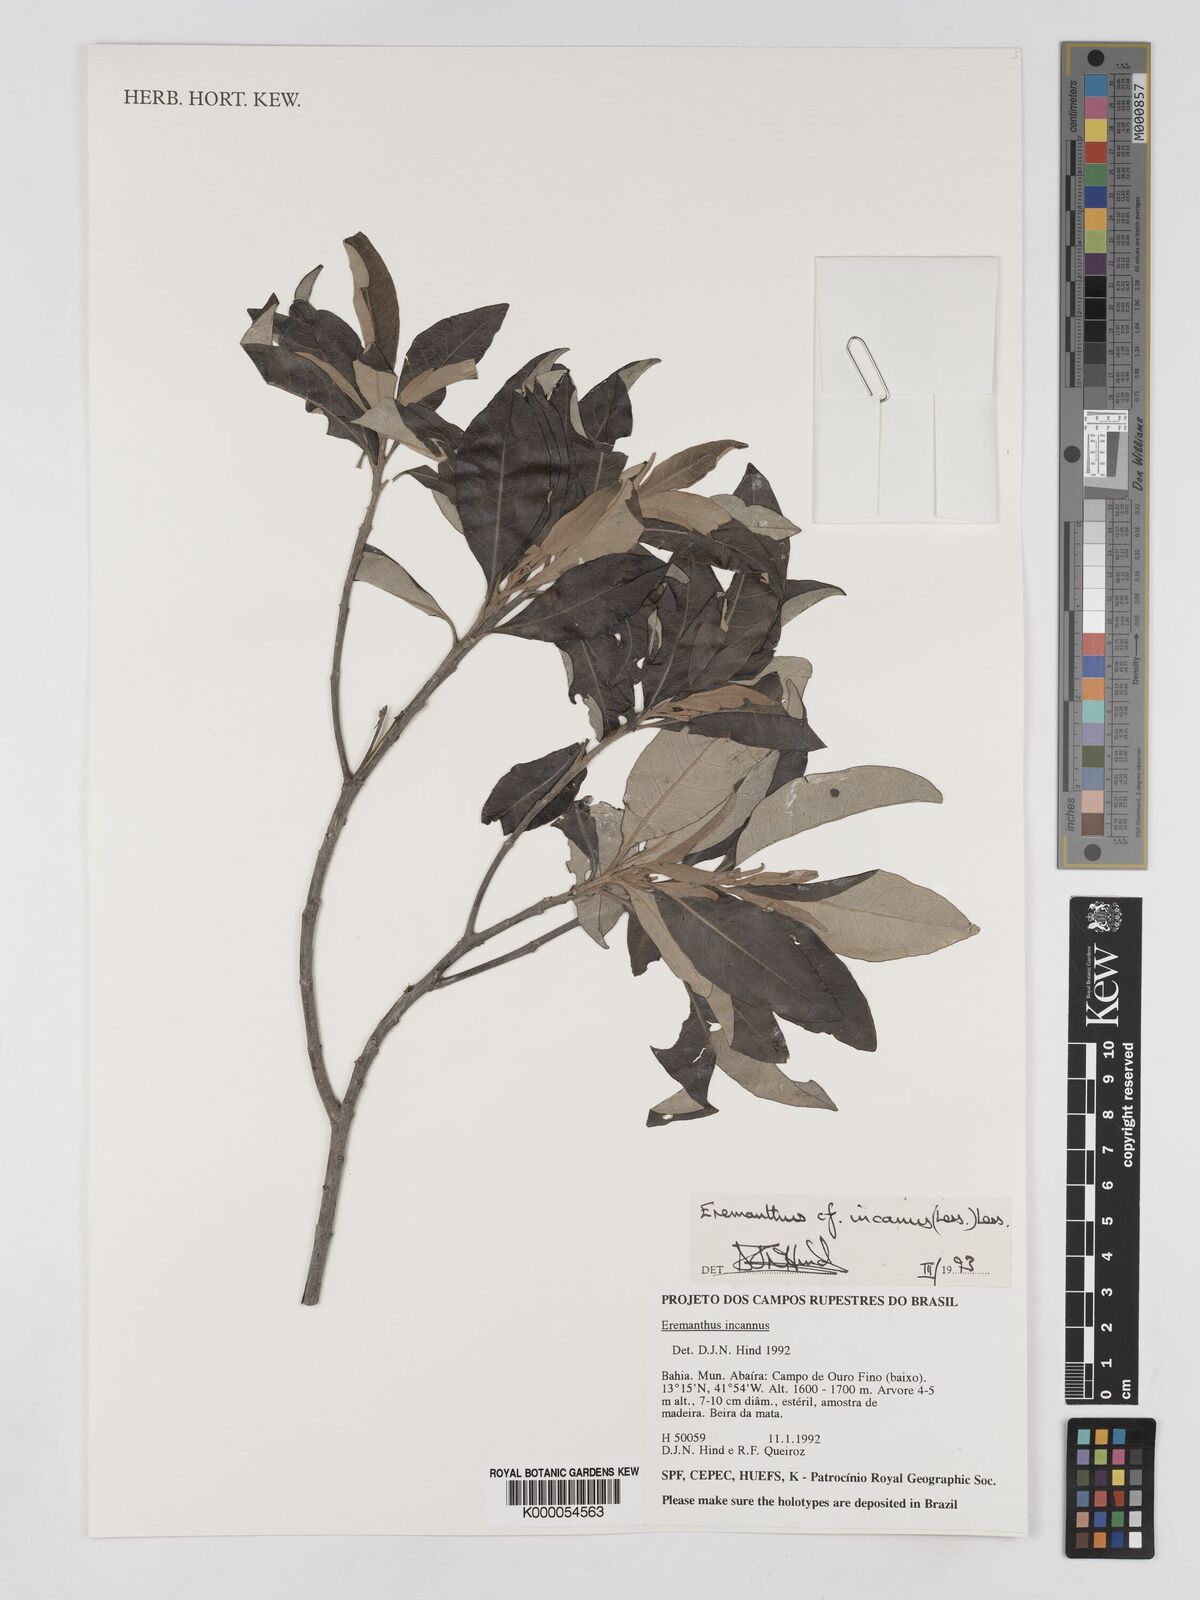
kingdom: Plantae
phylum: Tracheophyta
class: Magnoliopsida
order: Asterales
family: Asteraceae
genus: Eremanthus
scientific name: Eremanthus incanus
